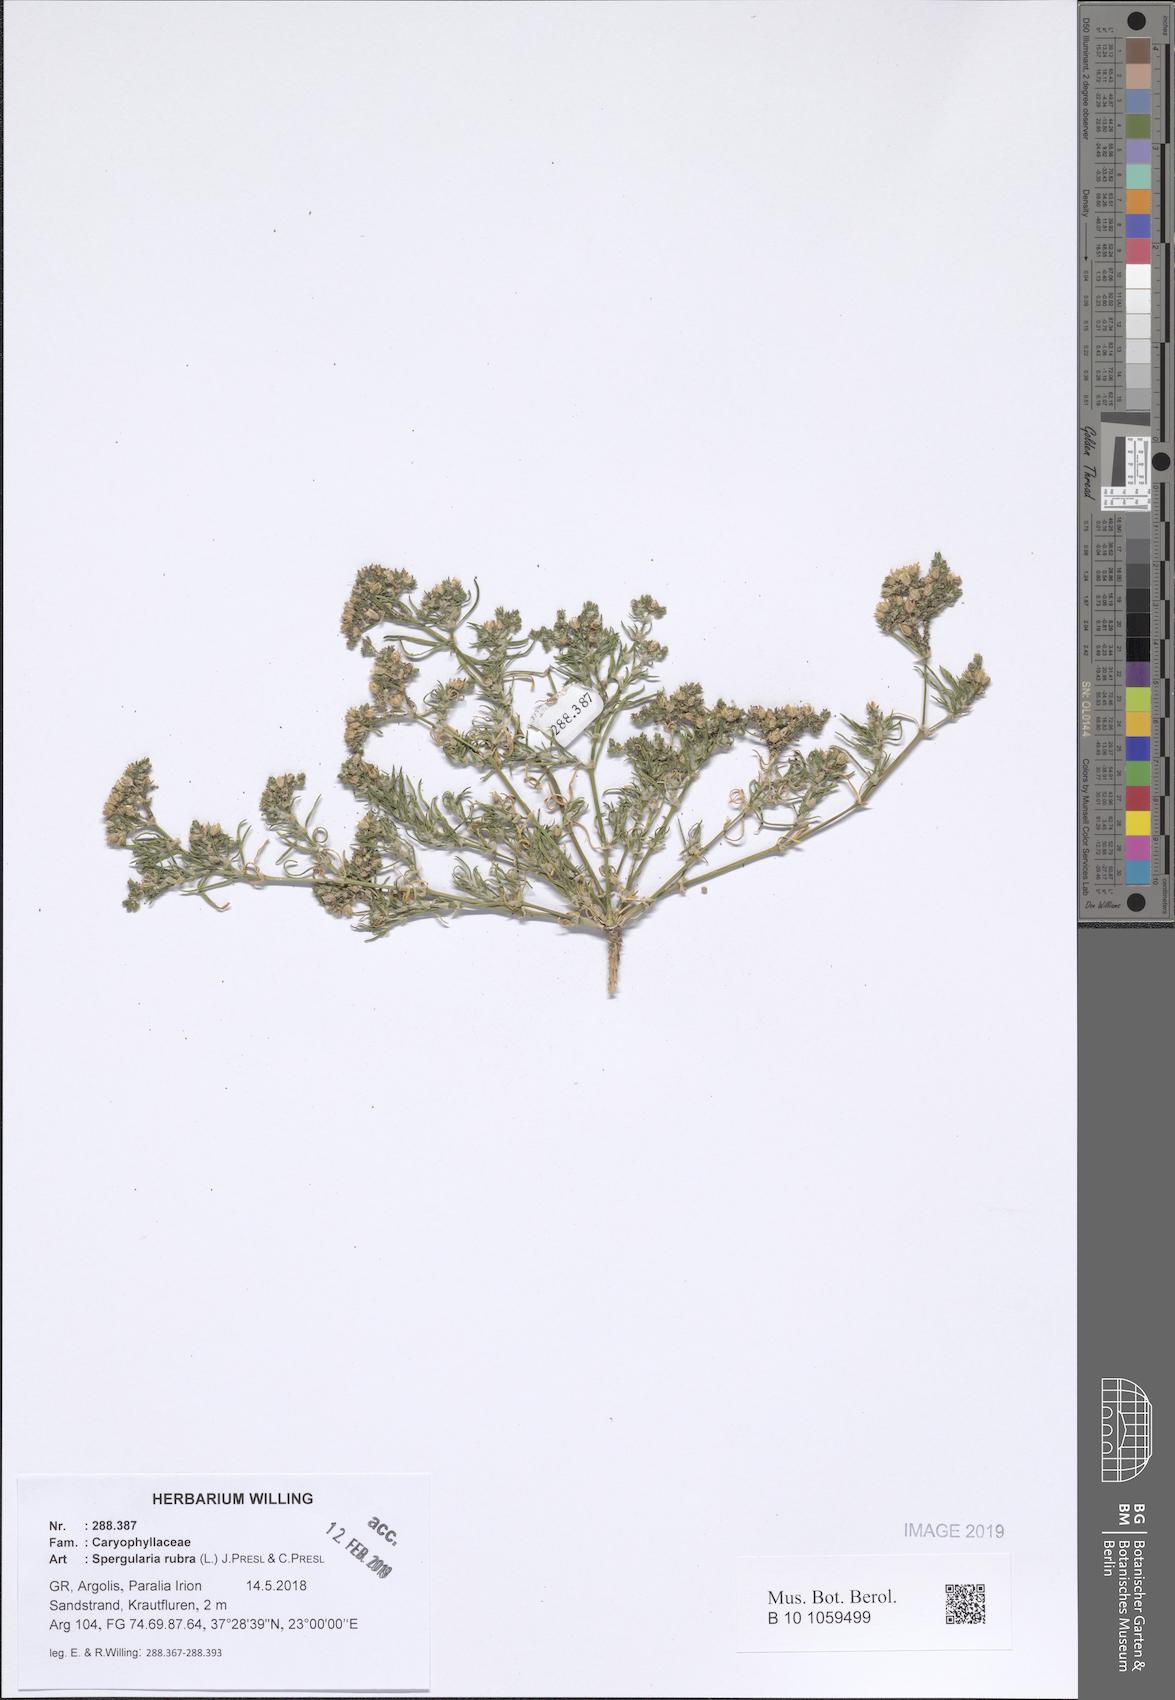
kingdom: Plantae
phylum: Tracheophyta
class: Magnoliopsida
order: Caryophyllales
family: Caryophyllaceae
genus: Spergularia
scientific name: Spergularia rubra
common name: Red sand-spurrey
